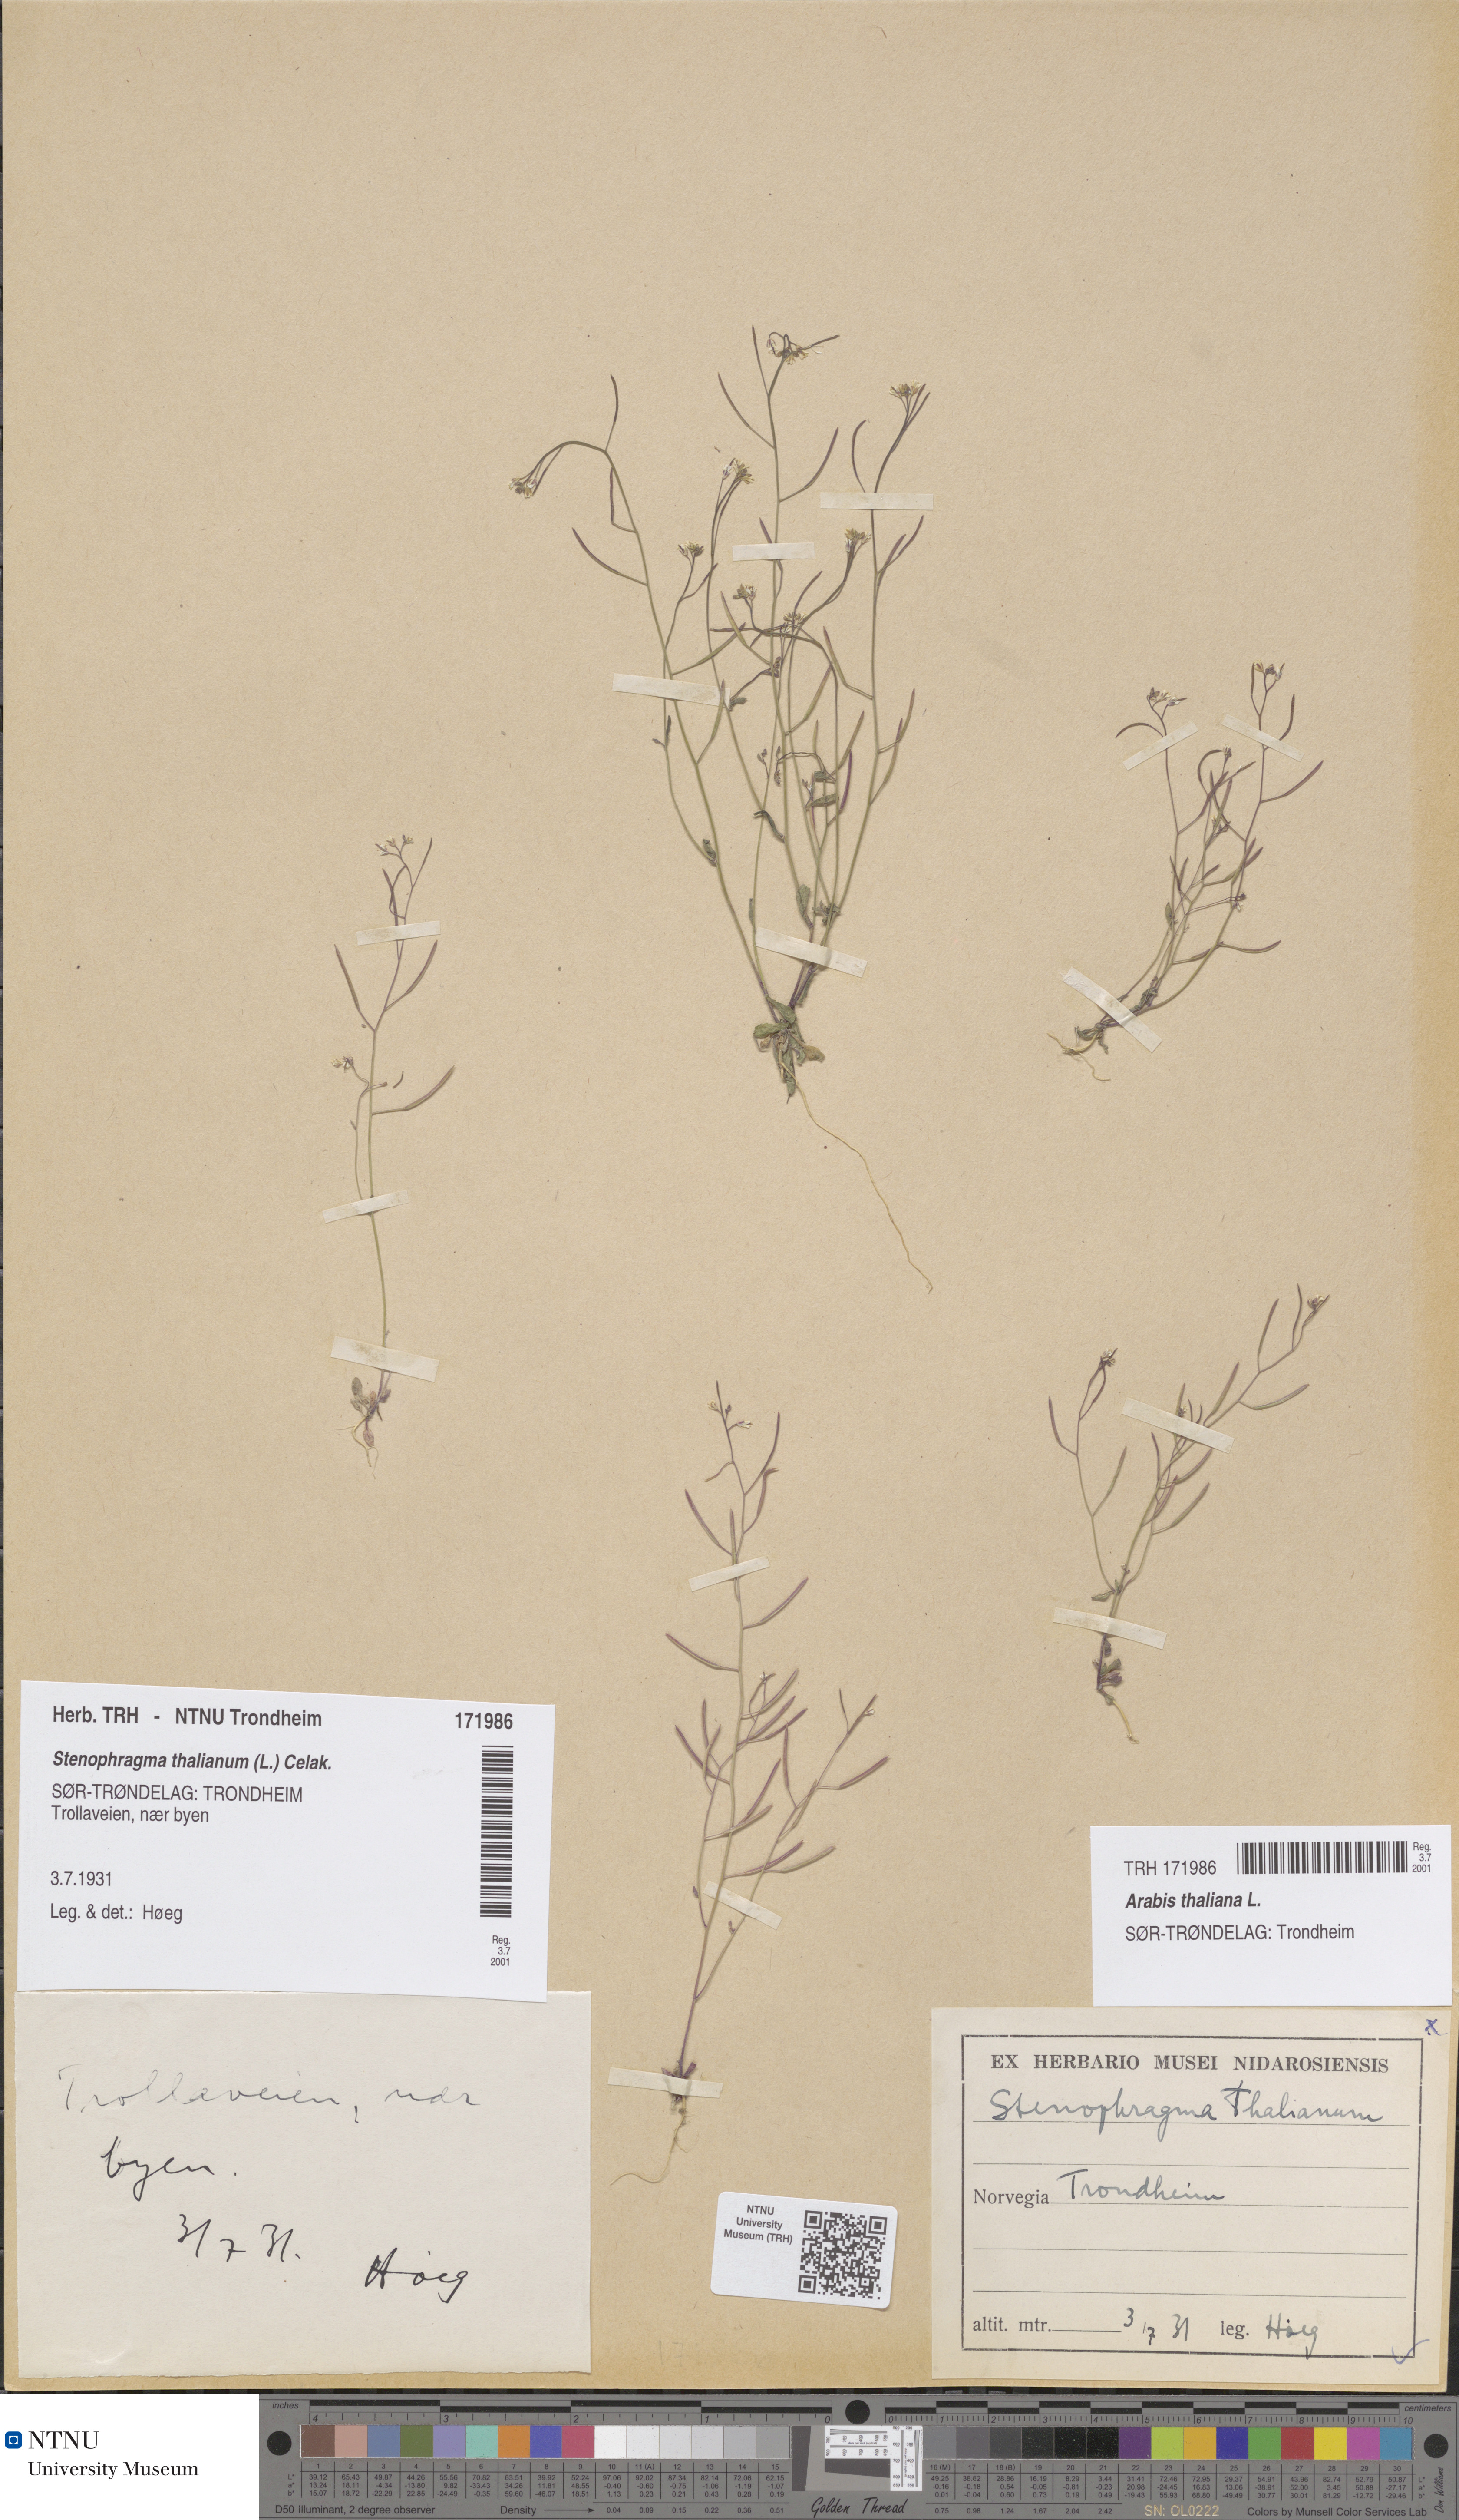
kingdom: Plantae
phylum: Tracheophyta
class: Magnoliopsida
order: Brassicales
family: Brassicaceae
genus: Arabidopsis
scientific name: Arabidopsis thaliana
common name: Thale cress
